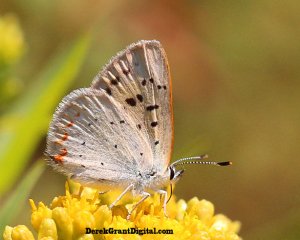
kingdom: Animalia
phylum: Arthropoda
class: Insecta
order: Lepidoptera
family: Sesiidae
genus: Sesia
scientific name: Sesia Lycaena epixanthe
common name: Bog Copper
